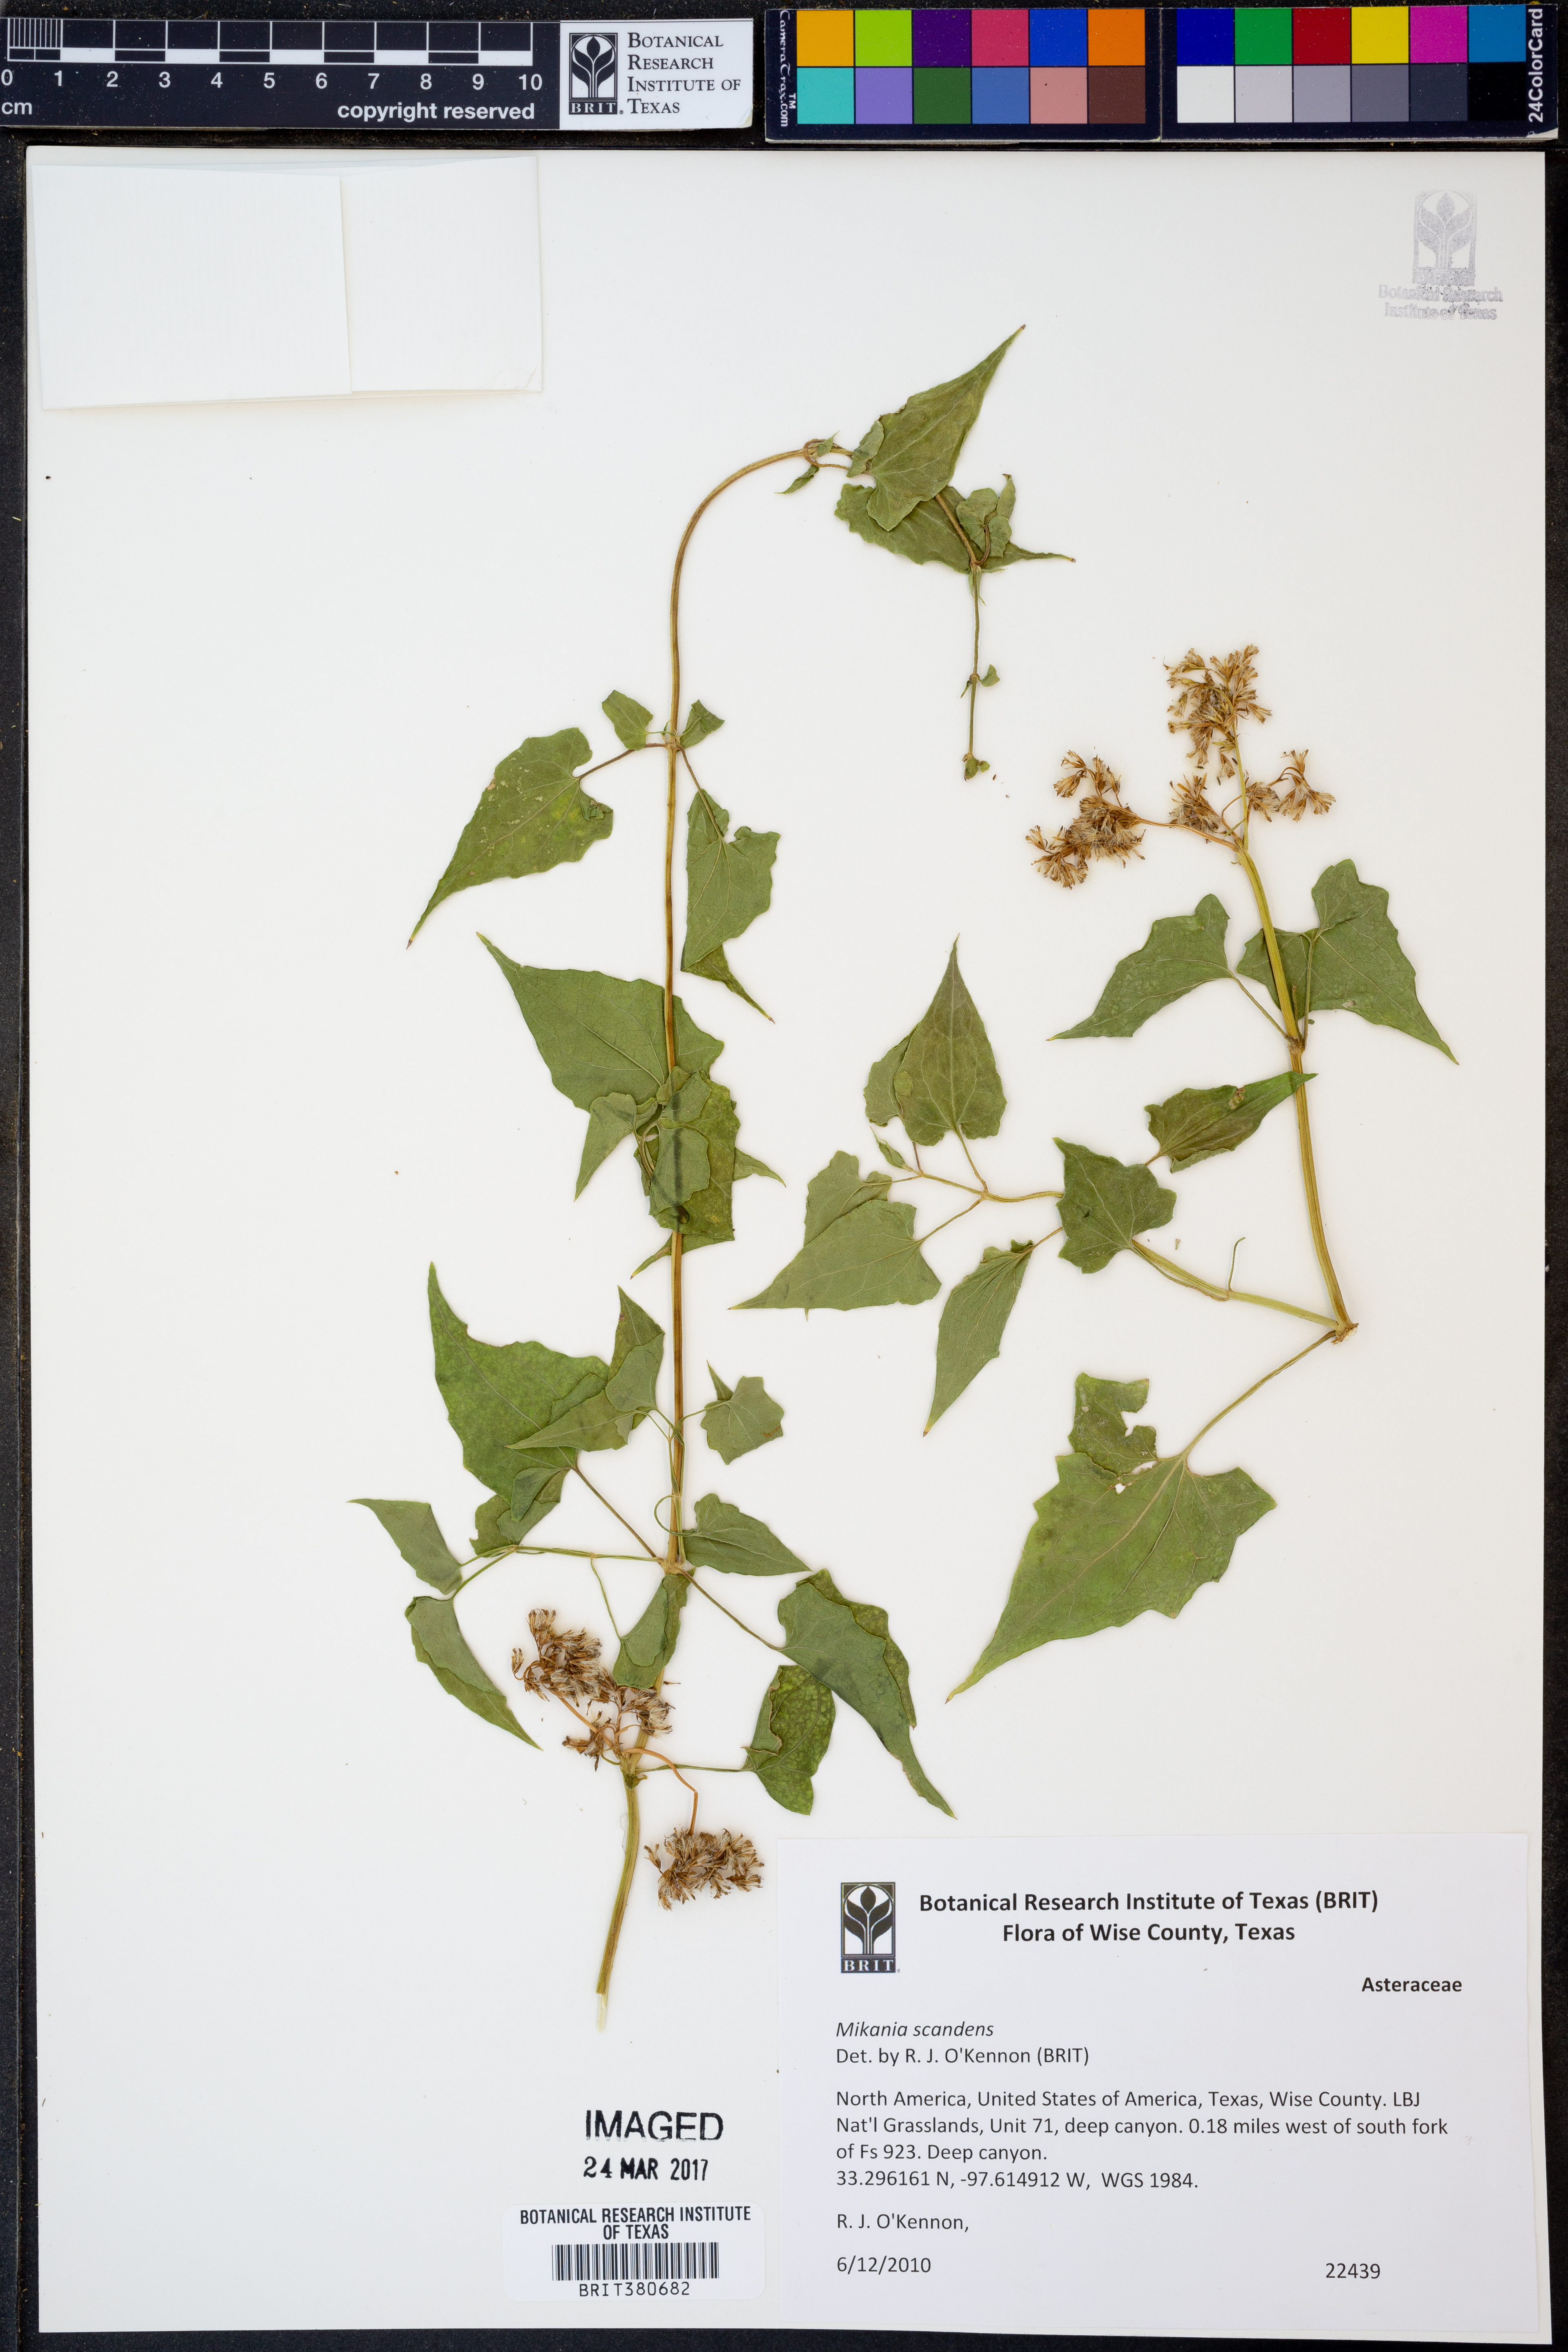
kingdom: Plantae
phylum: Tracheophyta
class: Magnoliopsida
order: Asterales
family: Asteraceae
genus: Mikania
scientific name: Mikania scandens
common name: Climbing hempvine
